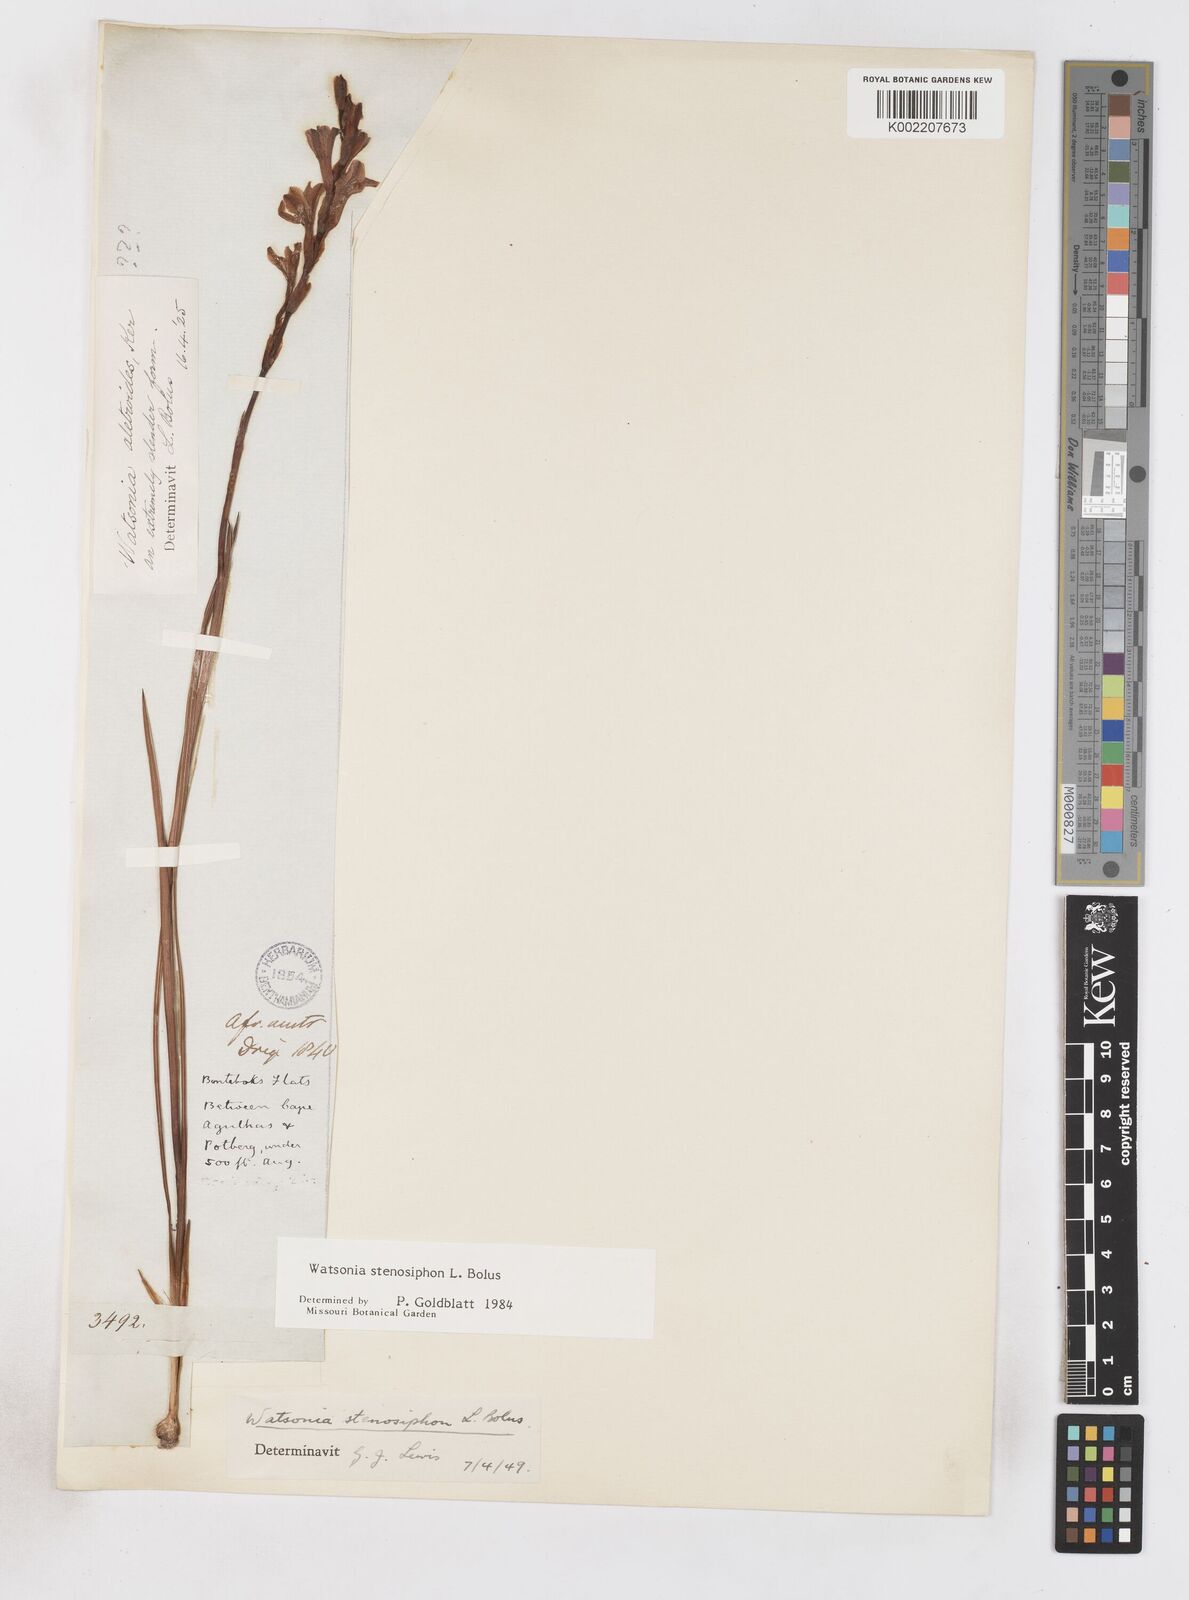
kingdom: Plantae
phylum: Tracheophyta
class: Liliopsida
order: Asparagales
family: Iridaceae
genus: Watsonia
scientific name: Watsonia stenosiphon
